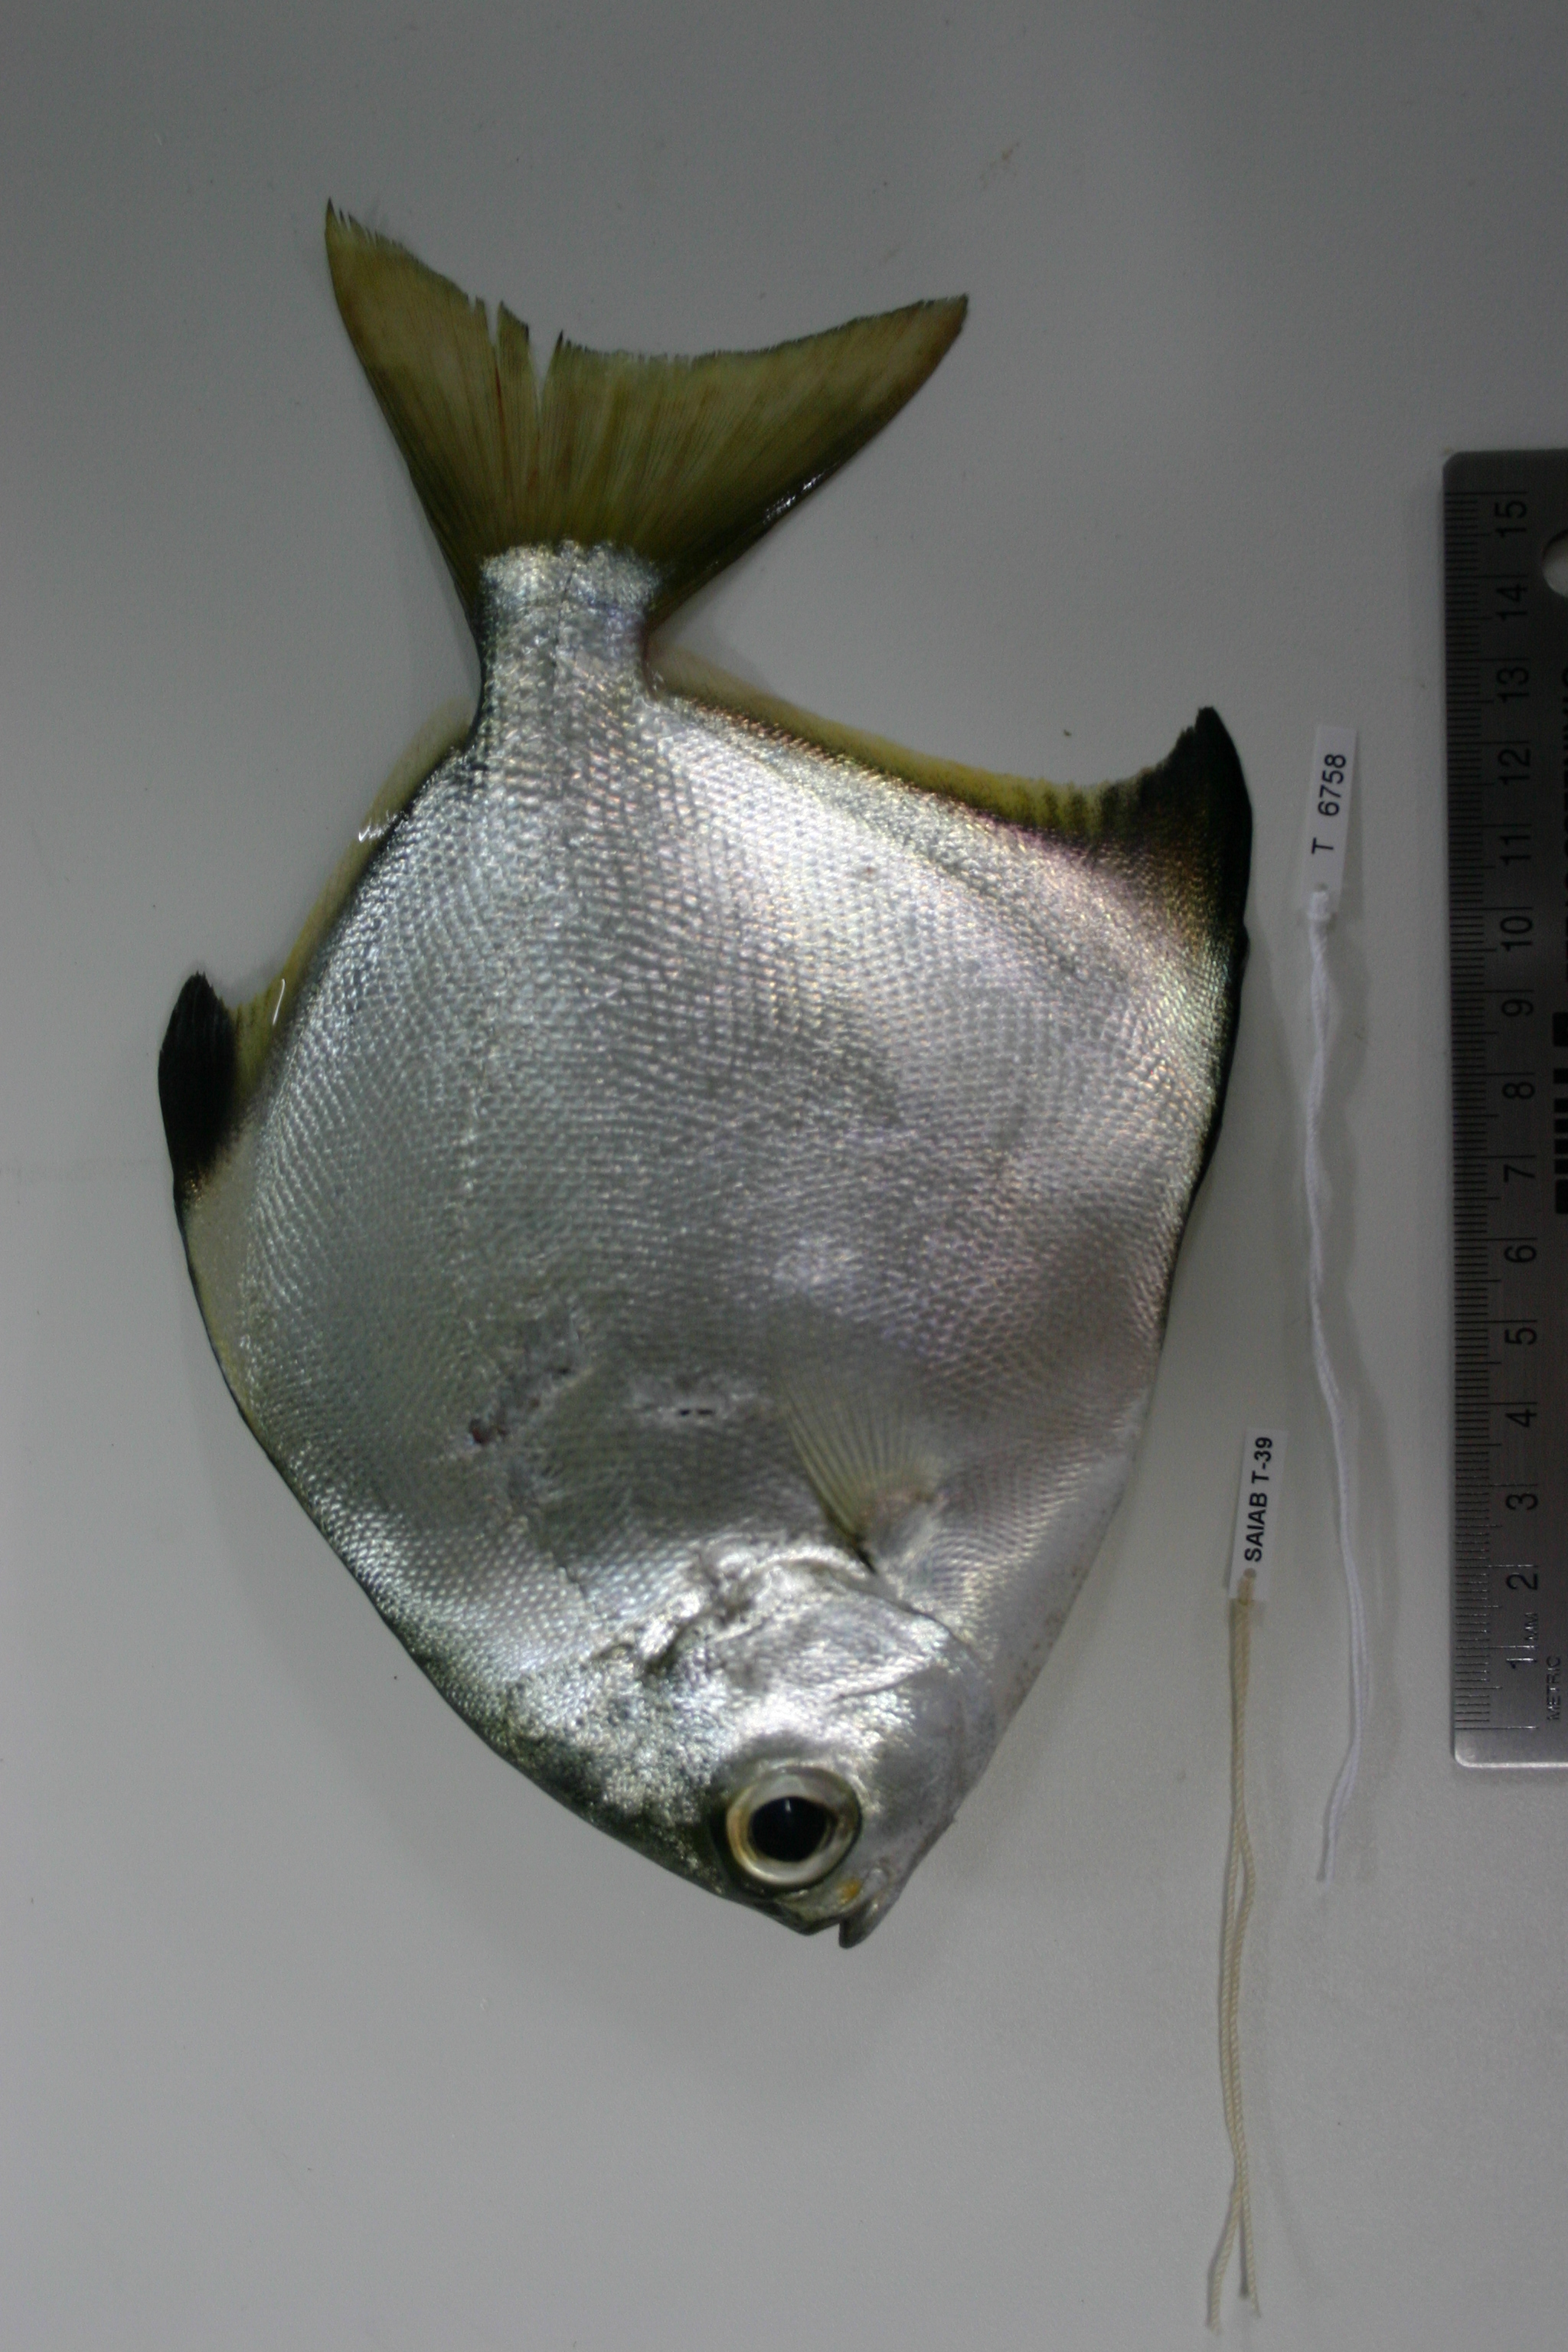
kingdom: Animalia
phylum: Chordata
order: Perciformes
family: Monodactylidae
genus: Monodactylus
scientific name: Monodactylus argenteus
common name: Silver moony
